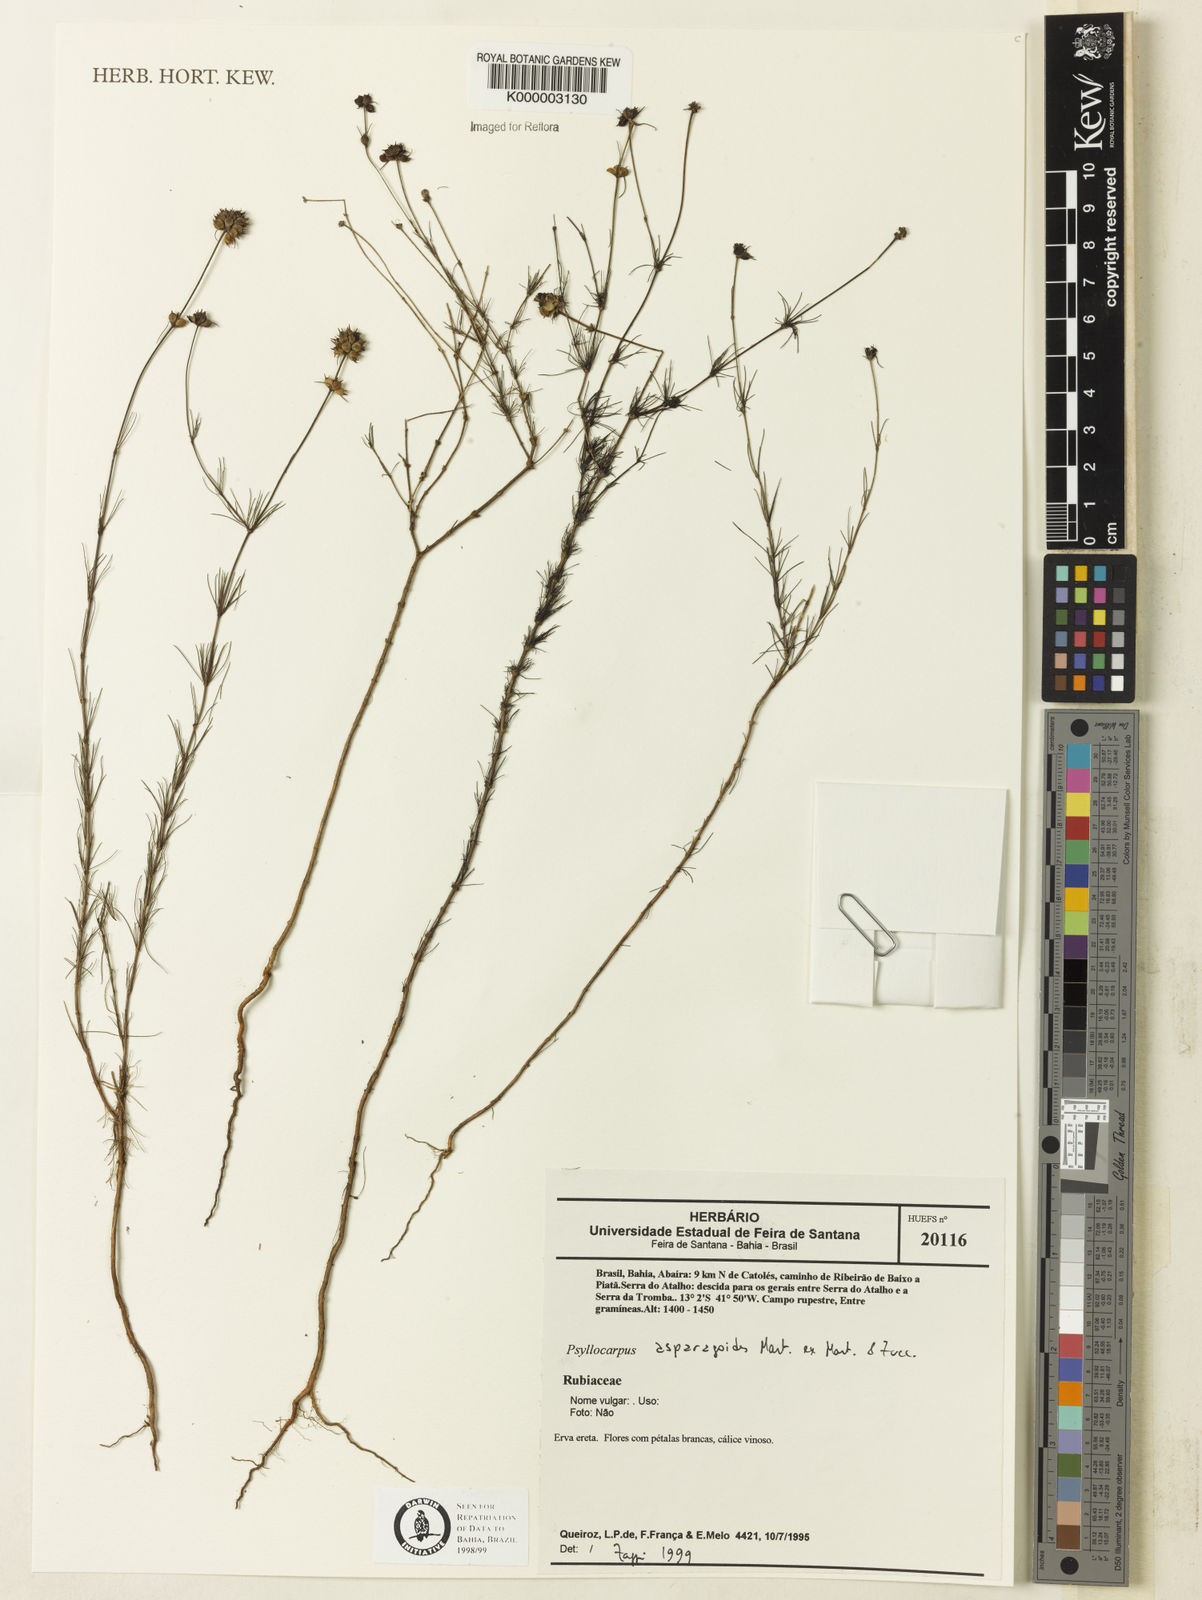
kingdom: Plantae
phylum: Tracheophyta
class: Magnoliopsida
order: Gentianales
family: Rubiaceae
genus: Psyllocarpus
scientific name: Psyllocarpus asparagoides
